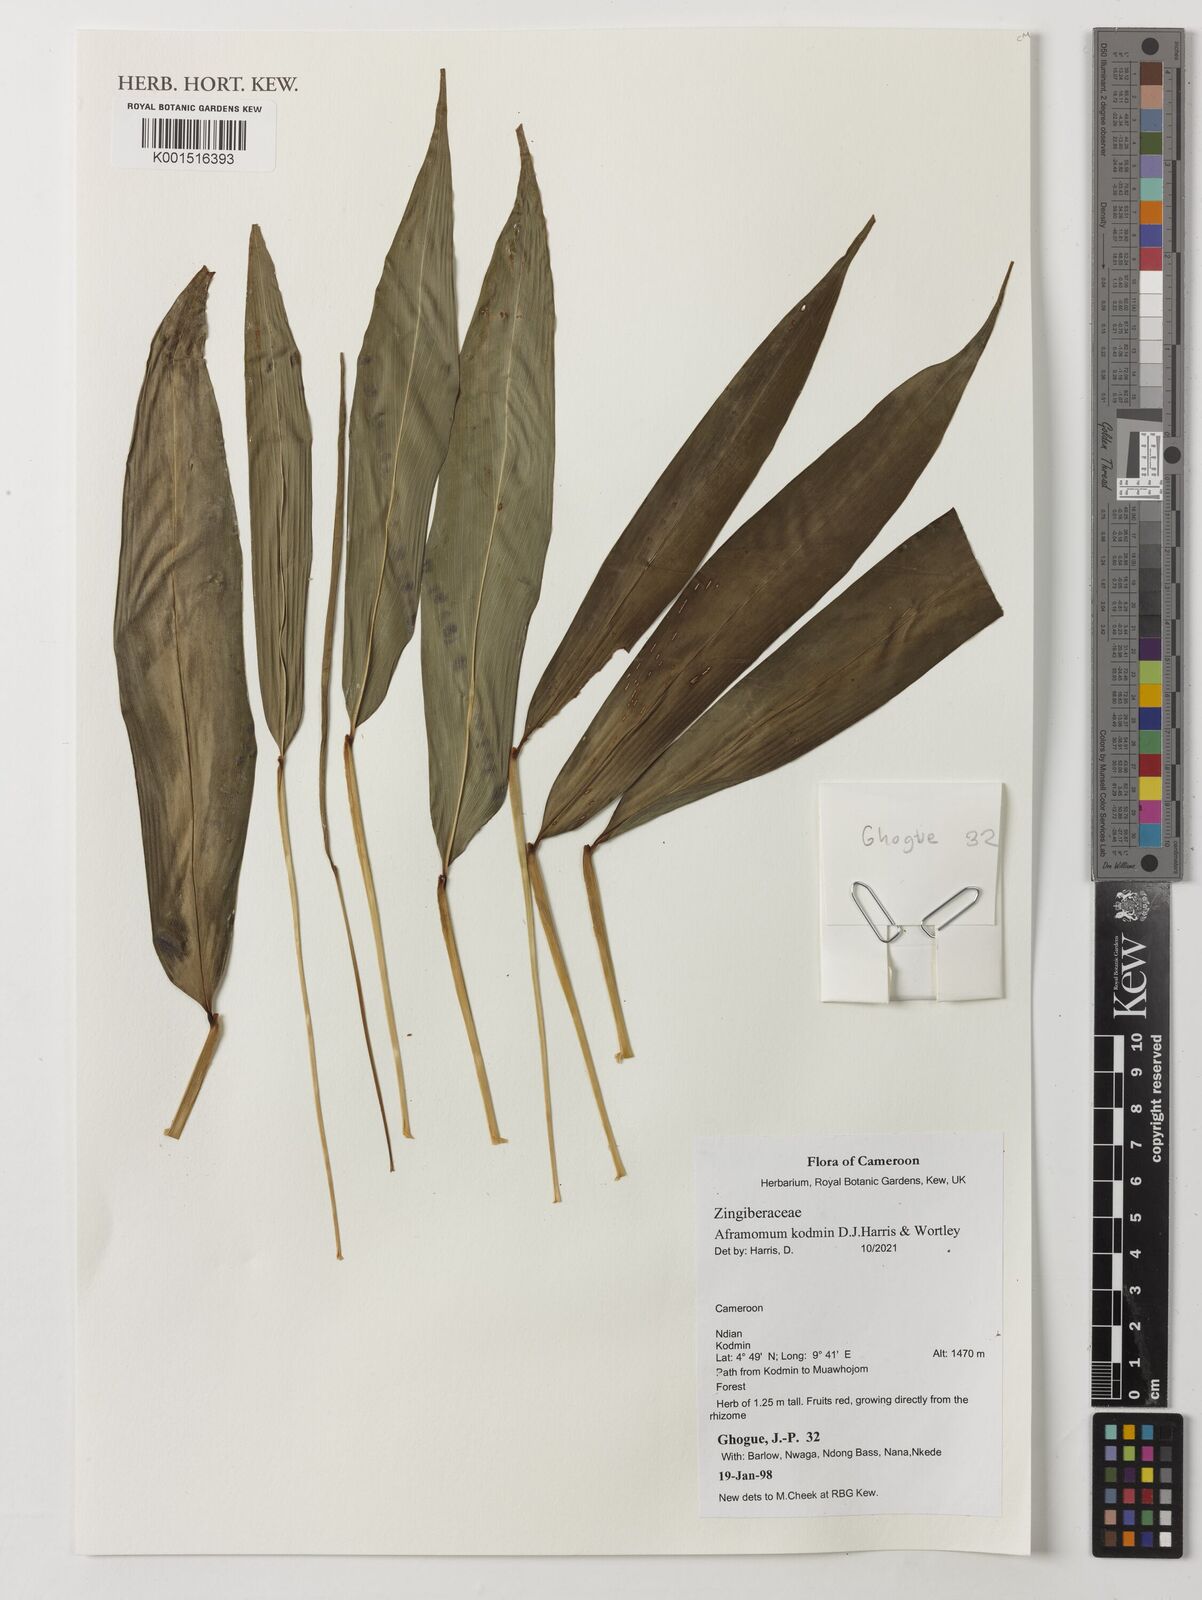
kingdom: Plantae
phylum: Tracheophyta
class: Liliopsida
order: Zingiberales
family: Zingiberaceae
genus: Aframomum
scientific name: Aframomum kodmin
